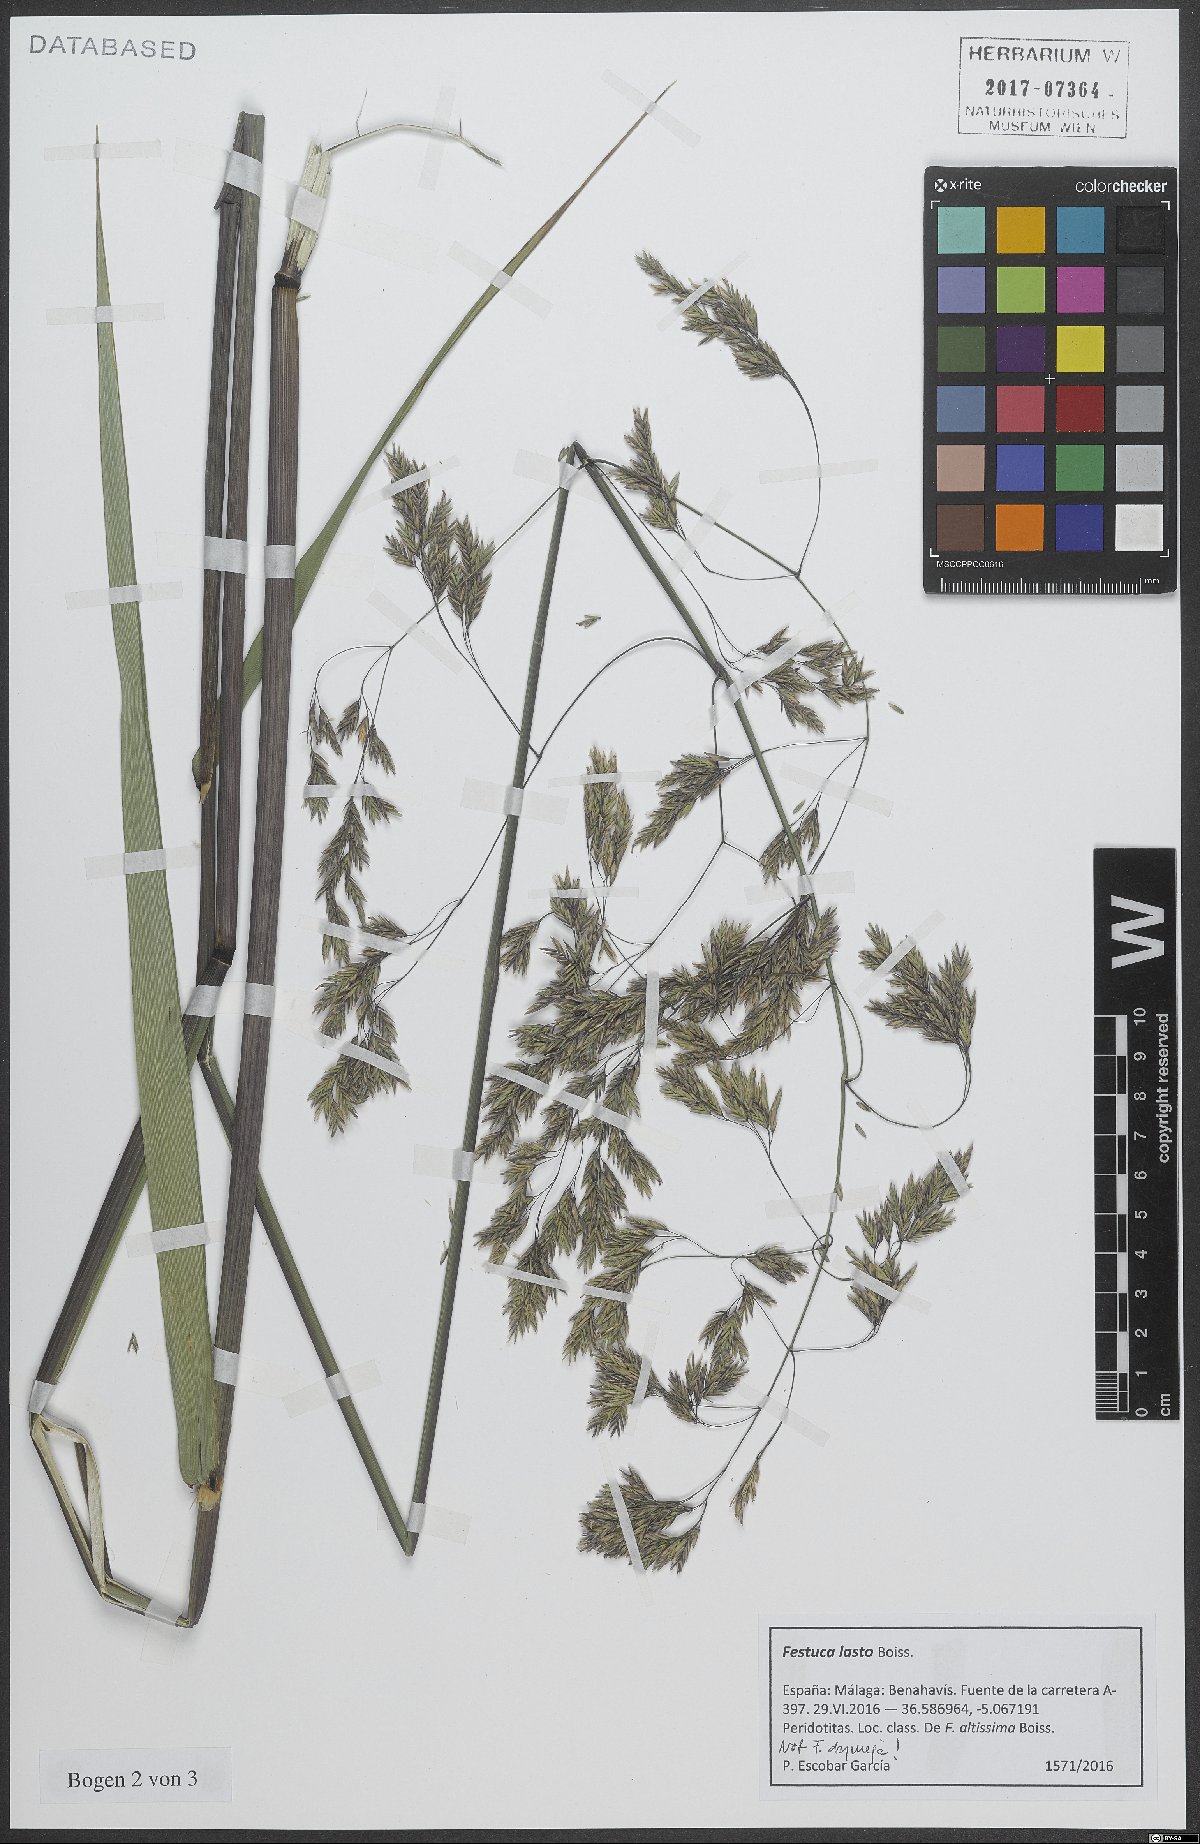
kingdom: Plantae
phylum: Tracheophyta
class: Liliopsida
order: Poales
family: Poaceae
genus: Festuca
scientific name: Festuca drymeja
